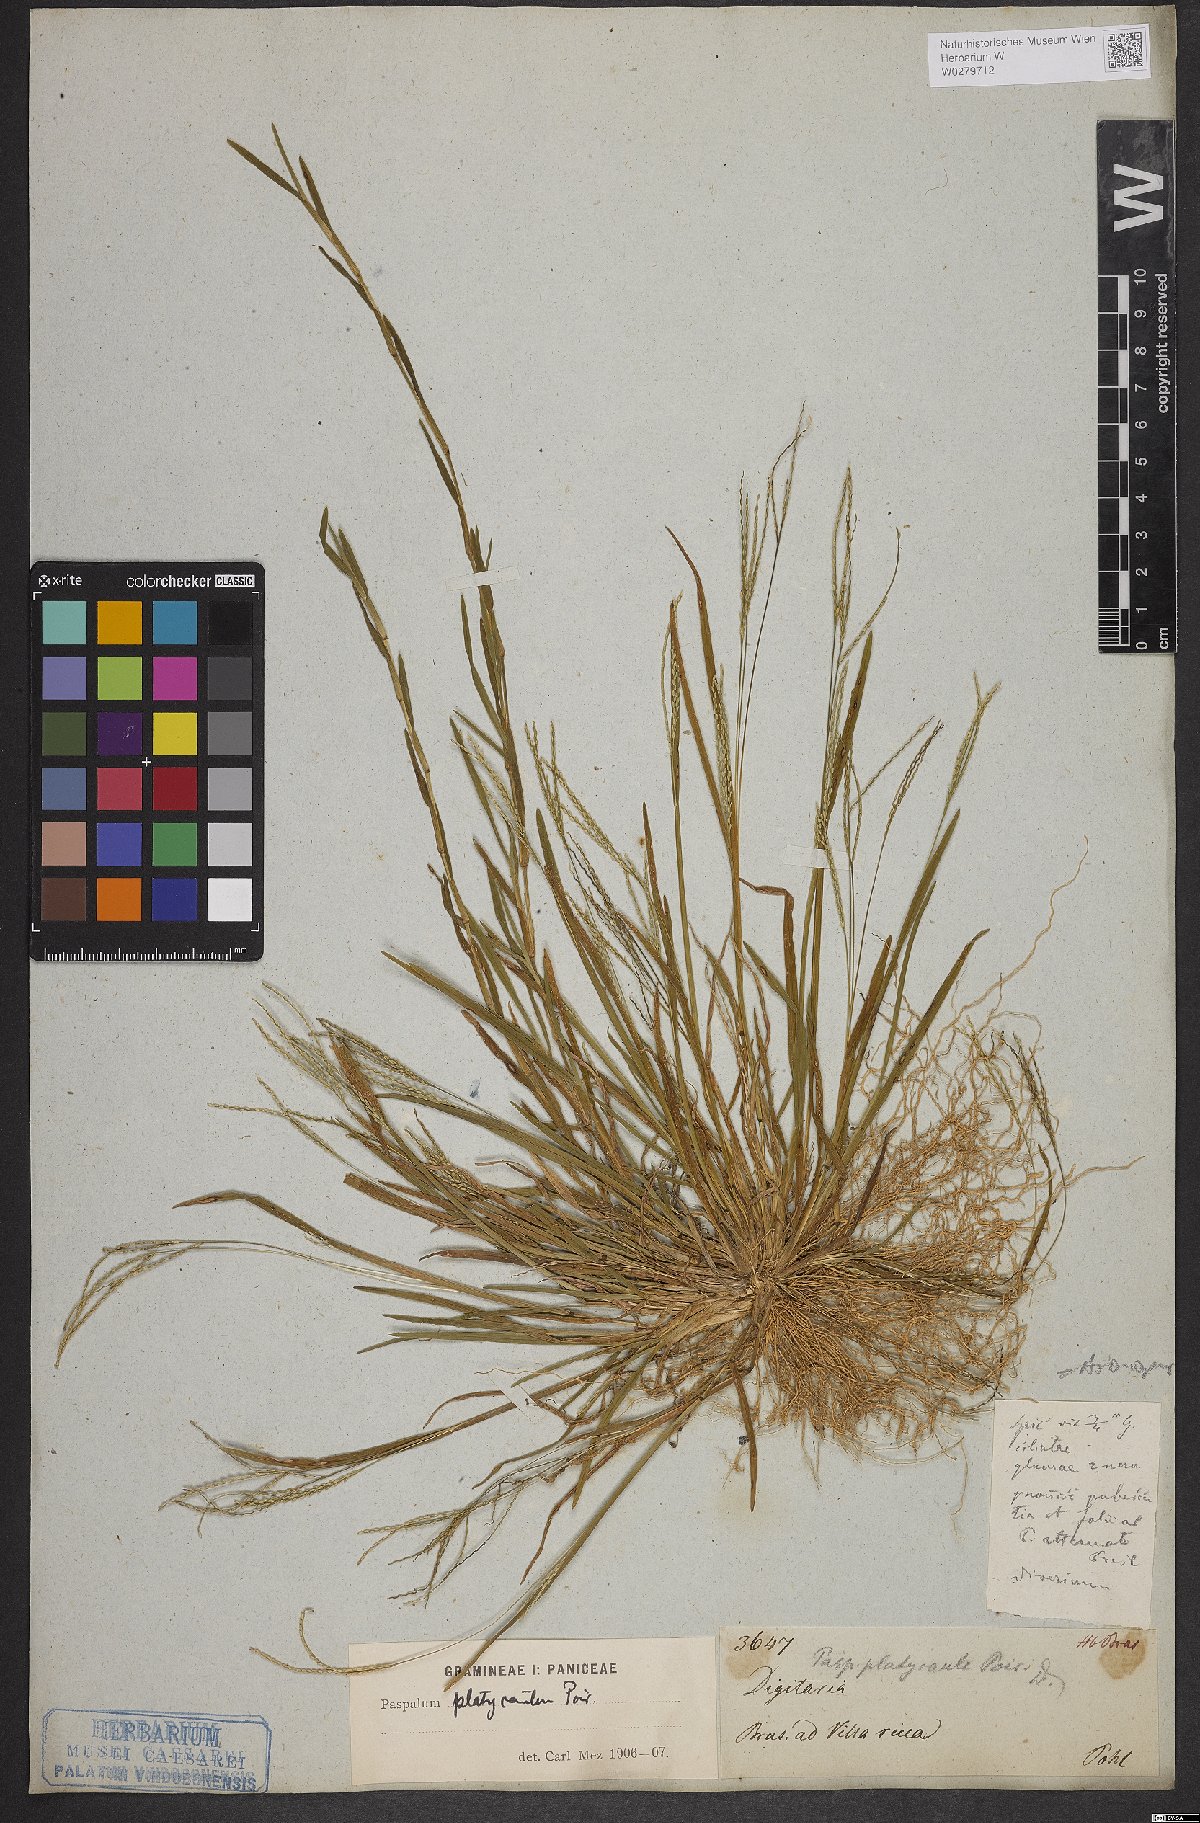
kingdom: Plantae
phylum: Tracheophyta
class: Liliopsida
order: Poales
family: Poaceae
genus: Axonopus
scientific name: Axonopus compressus
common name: American carpet grass
